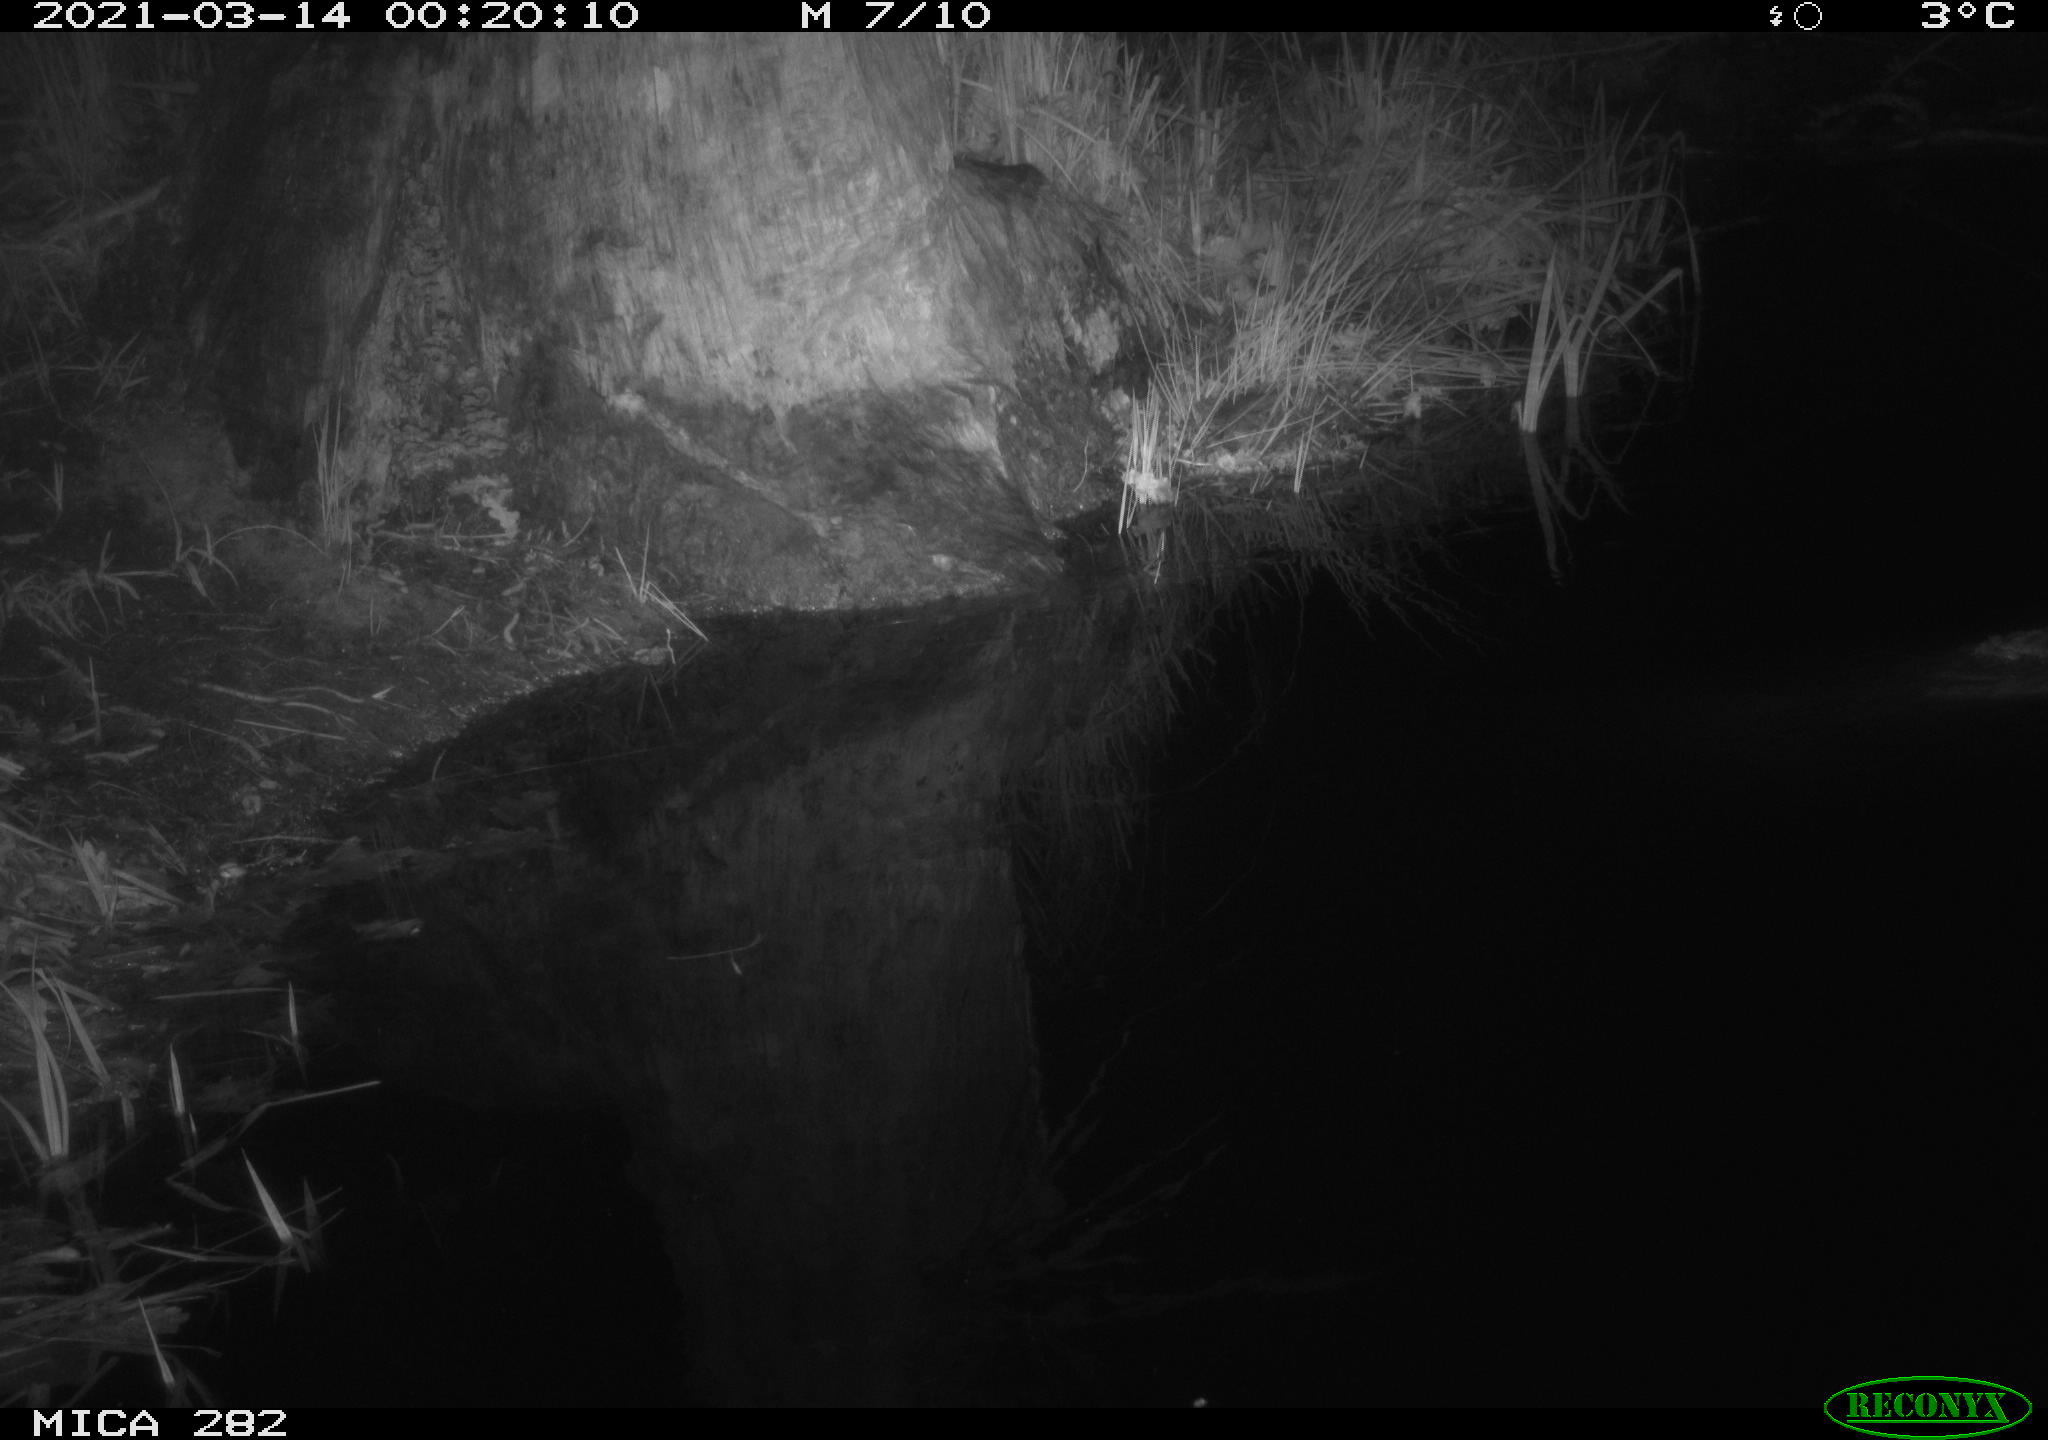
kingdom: Animalia
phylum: Chordata
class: Mammalia
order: Carnivora
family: Canidae
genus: Vulpes
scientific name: Vulpes vulpes
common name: Red fox
